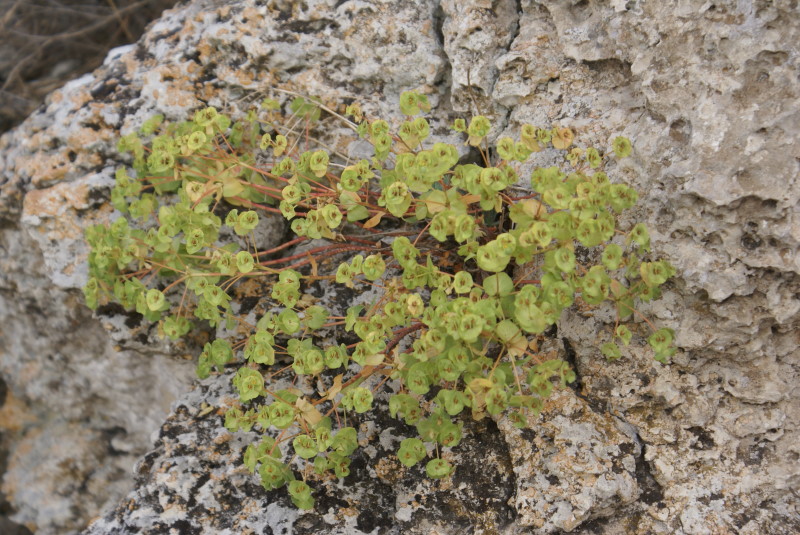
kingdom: Plantae
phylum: Tracheophyta
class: Magnoliopsida
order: Malpighiales
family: Euphorbiaceae
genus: Euphorbia
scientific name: Euphorbia petrophila
